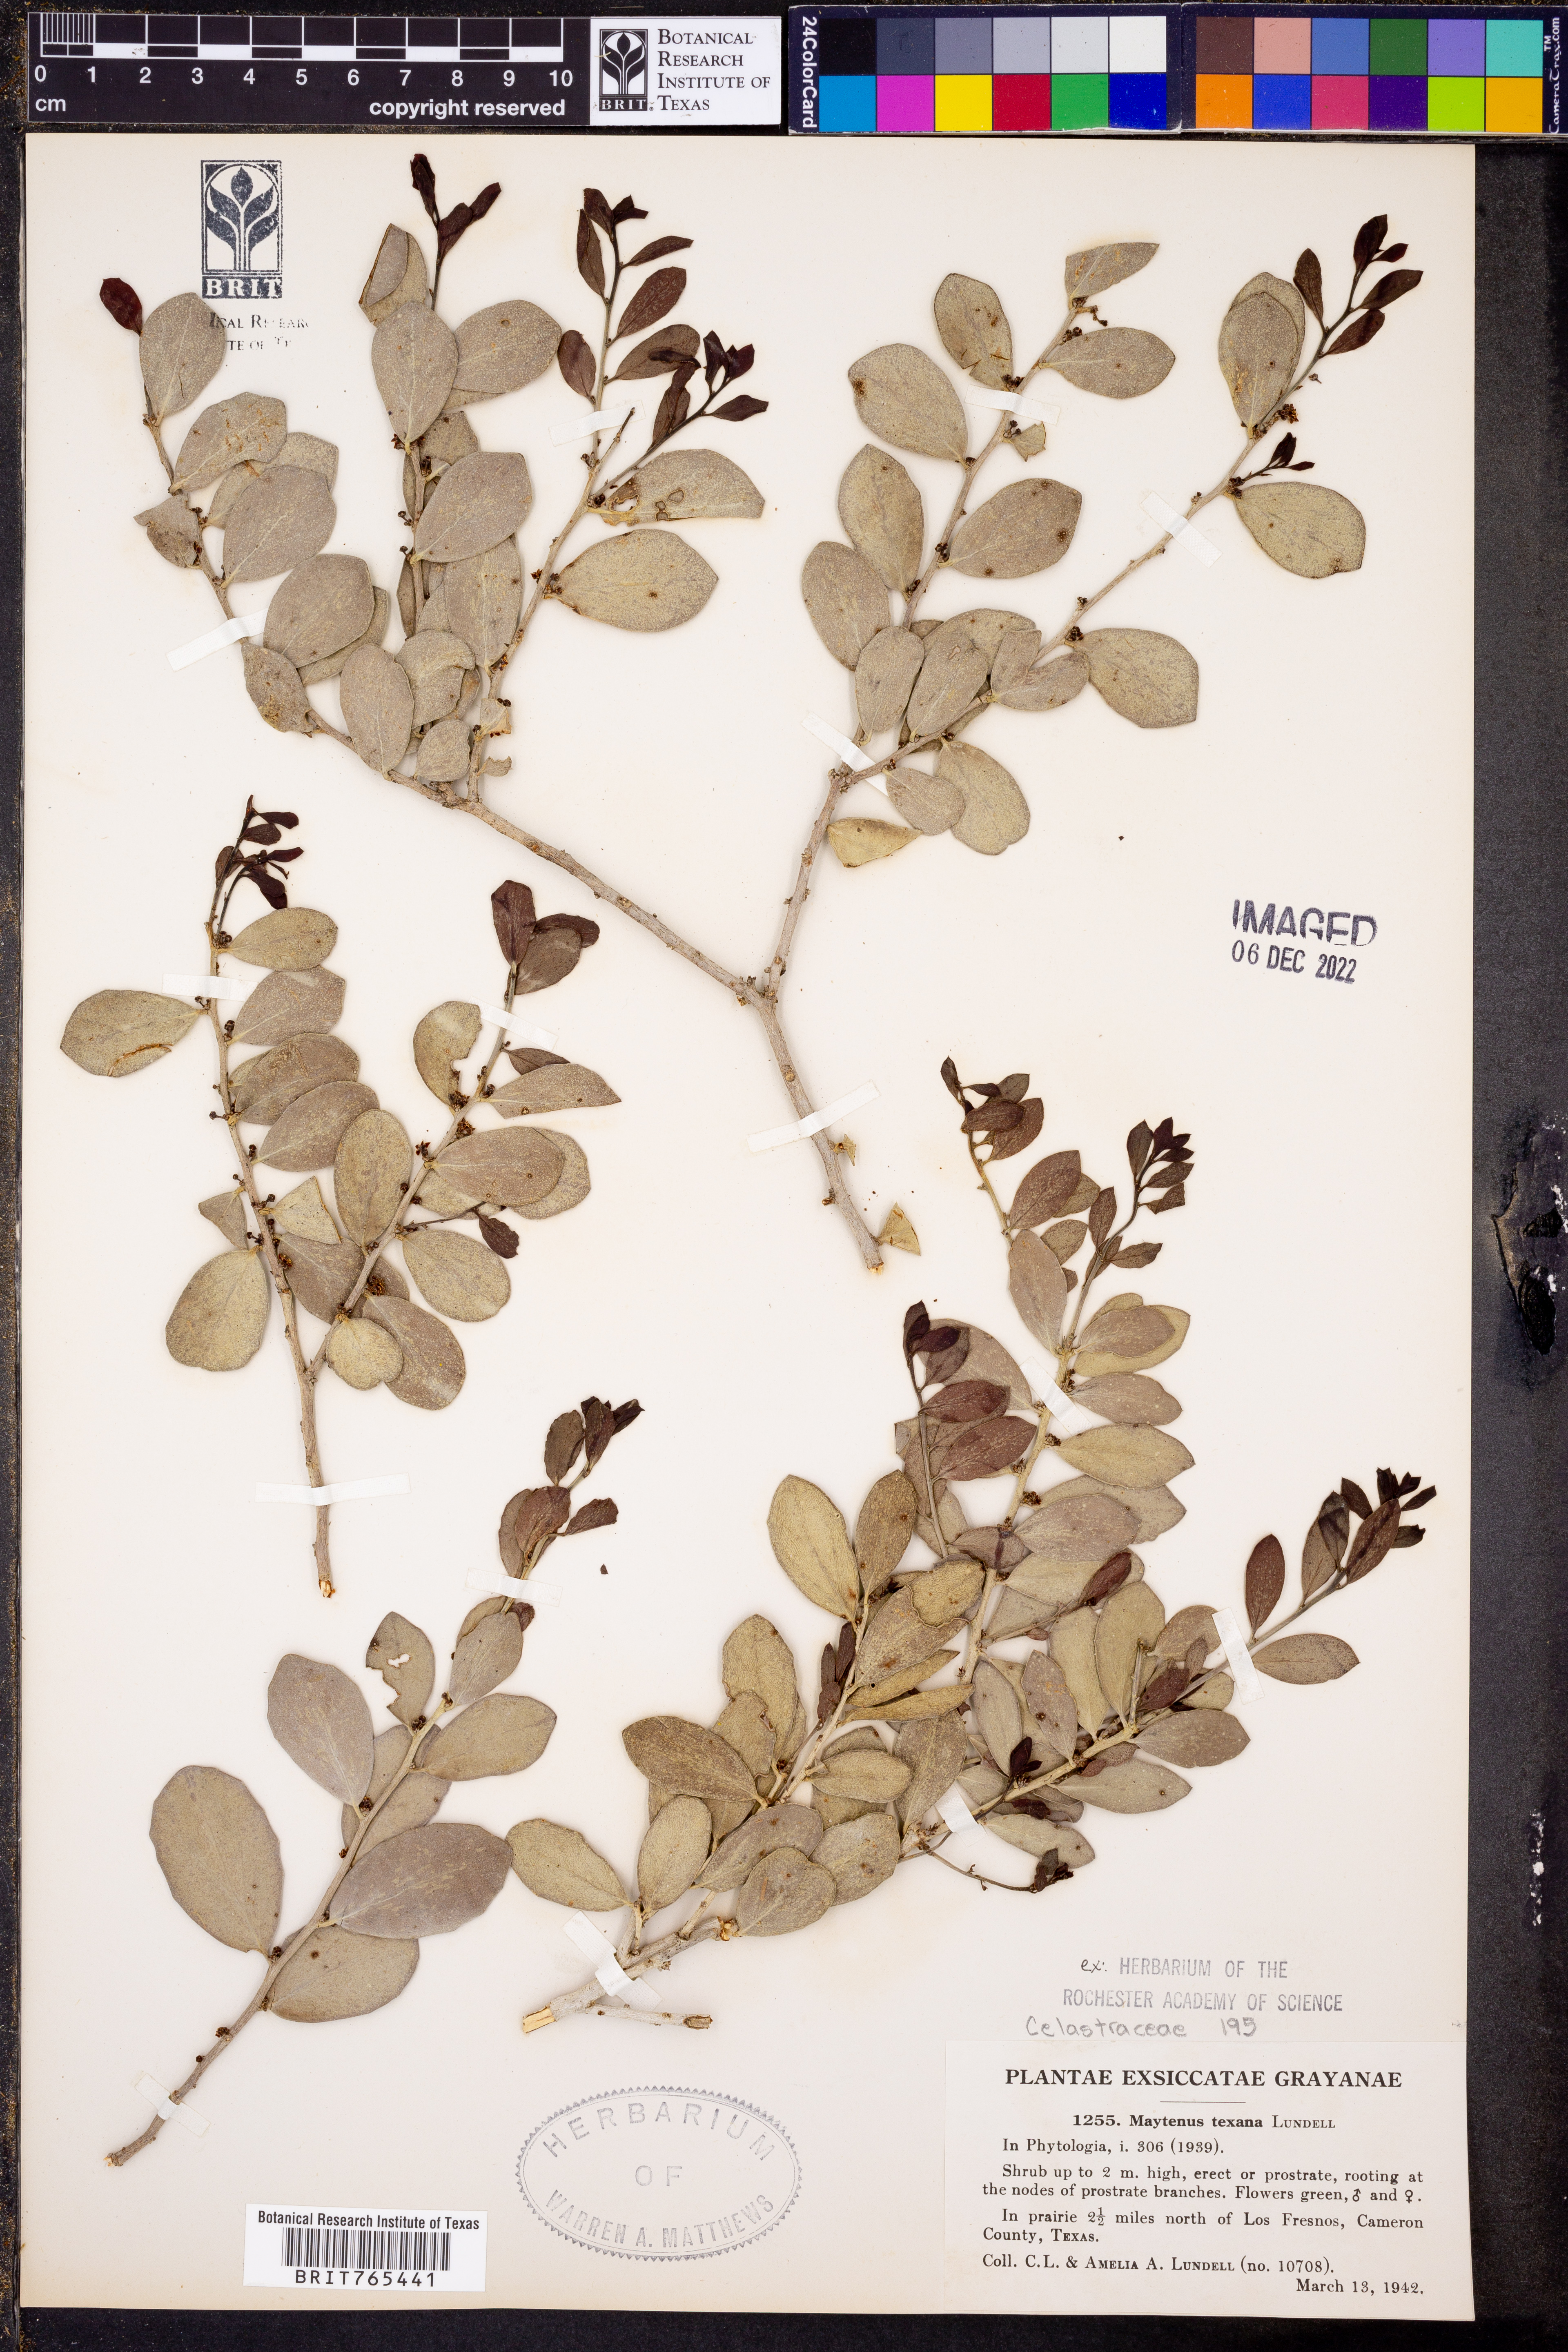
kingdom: Plantae
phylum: Tracheophyta
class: Magnoliopsida
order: Celastrales
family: Celastraceae
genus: Tricerma
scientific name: Tricerma phyllanthoides
